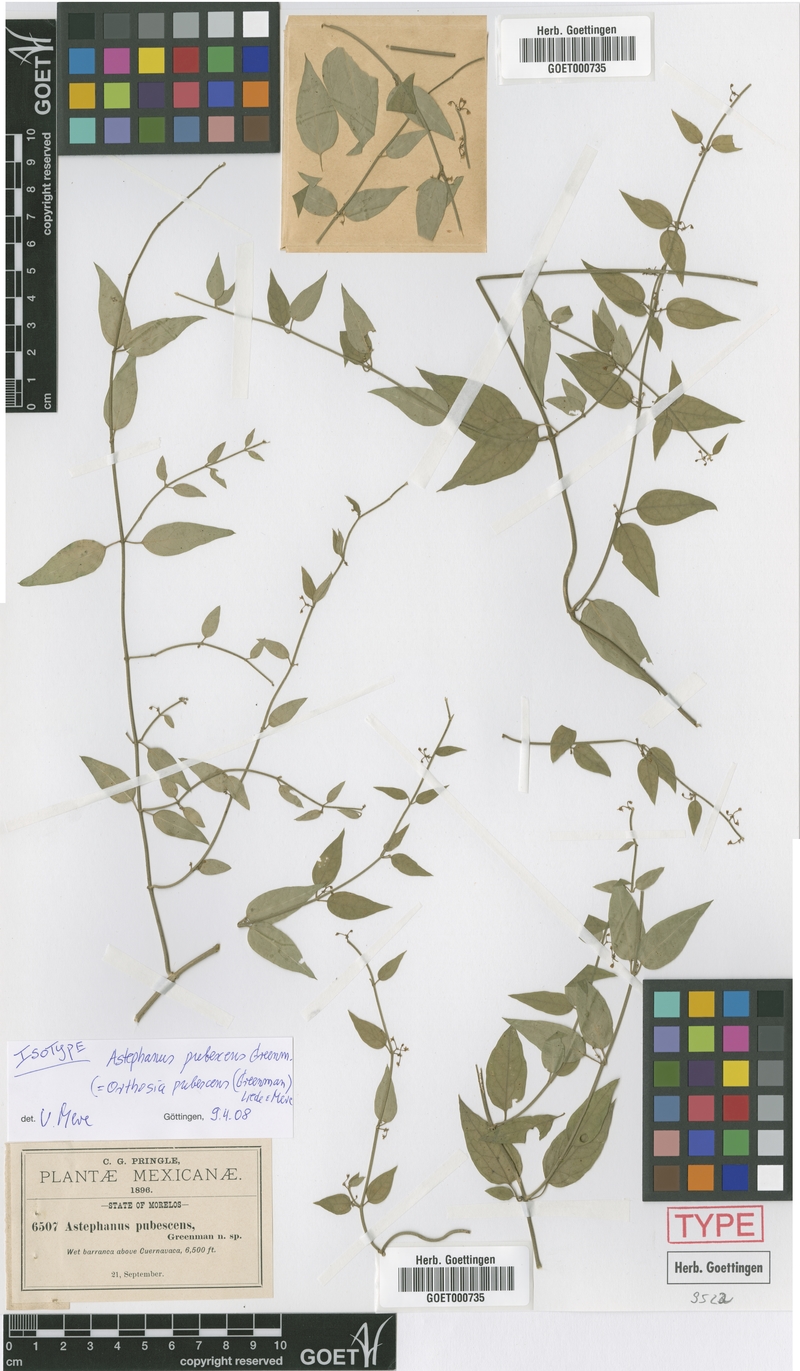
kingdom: Plantae
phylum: Tracheophyta
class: Magnoliopsida
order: Gentianales
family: Apocynaceae
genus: Orthosia
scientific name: Orthosia pubescens
